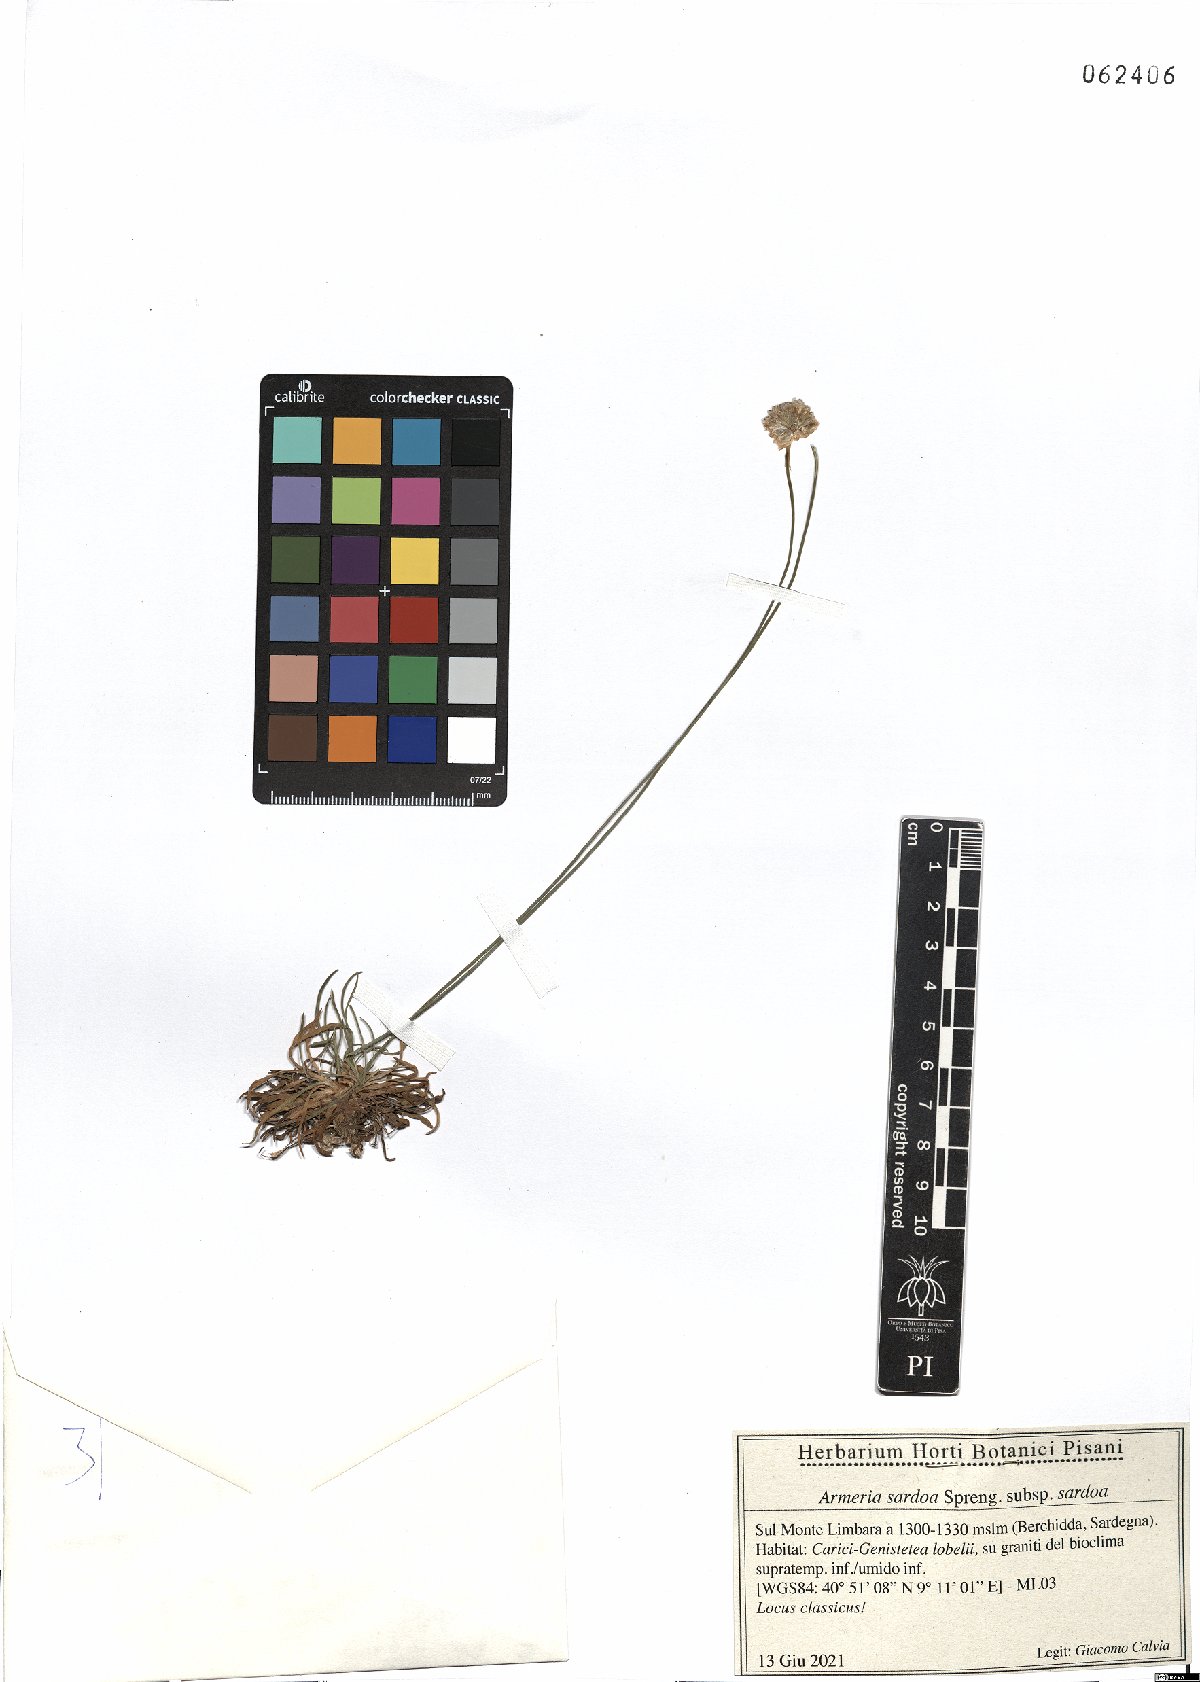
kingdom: Plantae
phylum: Tracheophyta
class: Magnoliopsida
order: Caryophyllales
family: Plumbaginaceae
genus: Armeria
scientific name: Armeria sardoa
